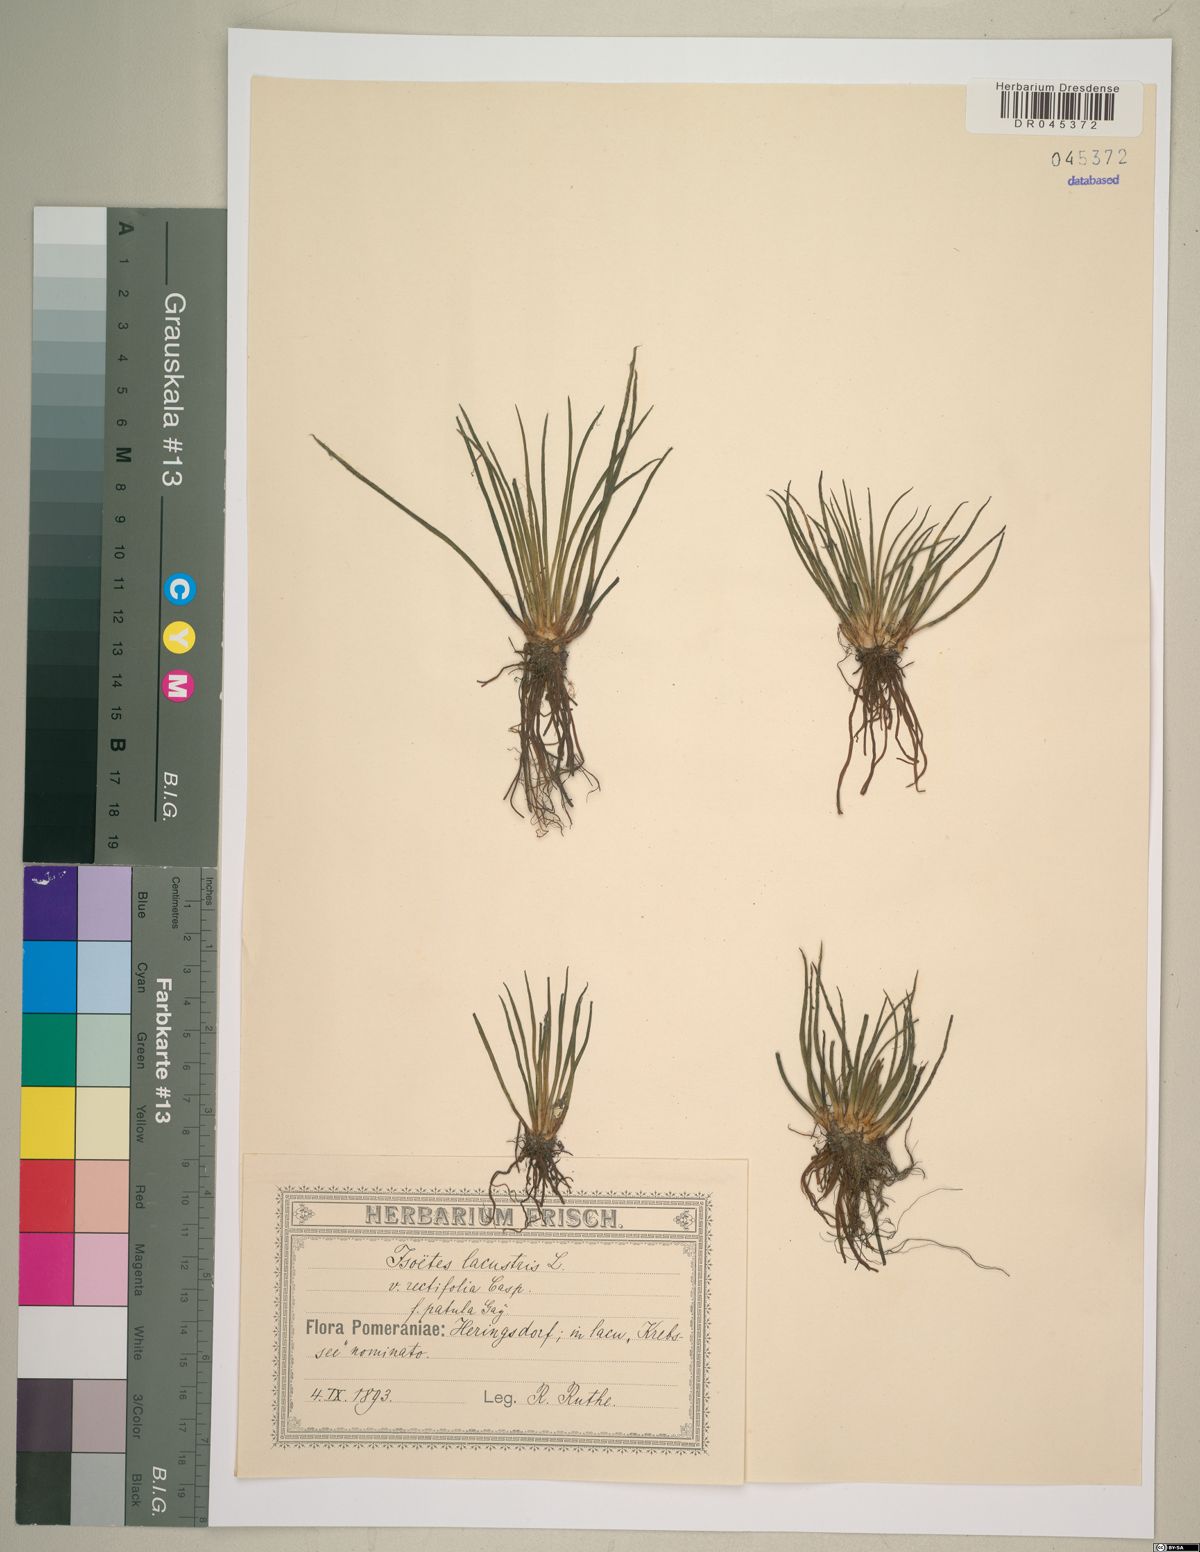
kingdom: Plantae
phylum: Tracheophyta
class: Lycopodiopsida
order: Isoetales
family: Isoetaceae
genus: Isoetes
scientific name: Isoetes lacustris
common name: Common quillwort
